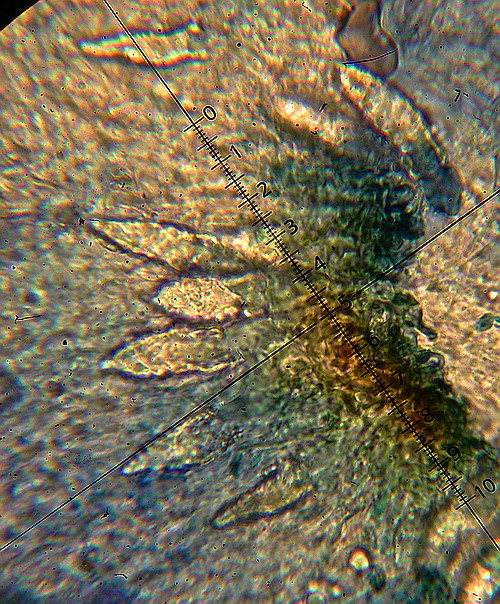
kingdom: Fungi
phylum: Basidiomycota
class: Agaricomycetes
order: Russulales
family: Peniophoraceae
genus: Peniophora
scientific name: Peniophora cinerea
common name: grå voksskind
